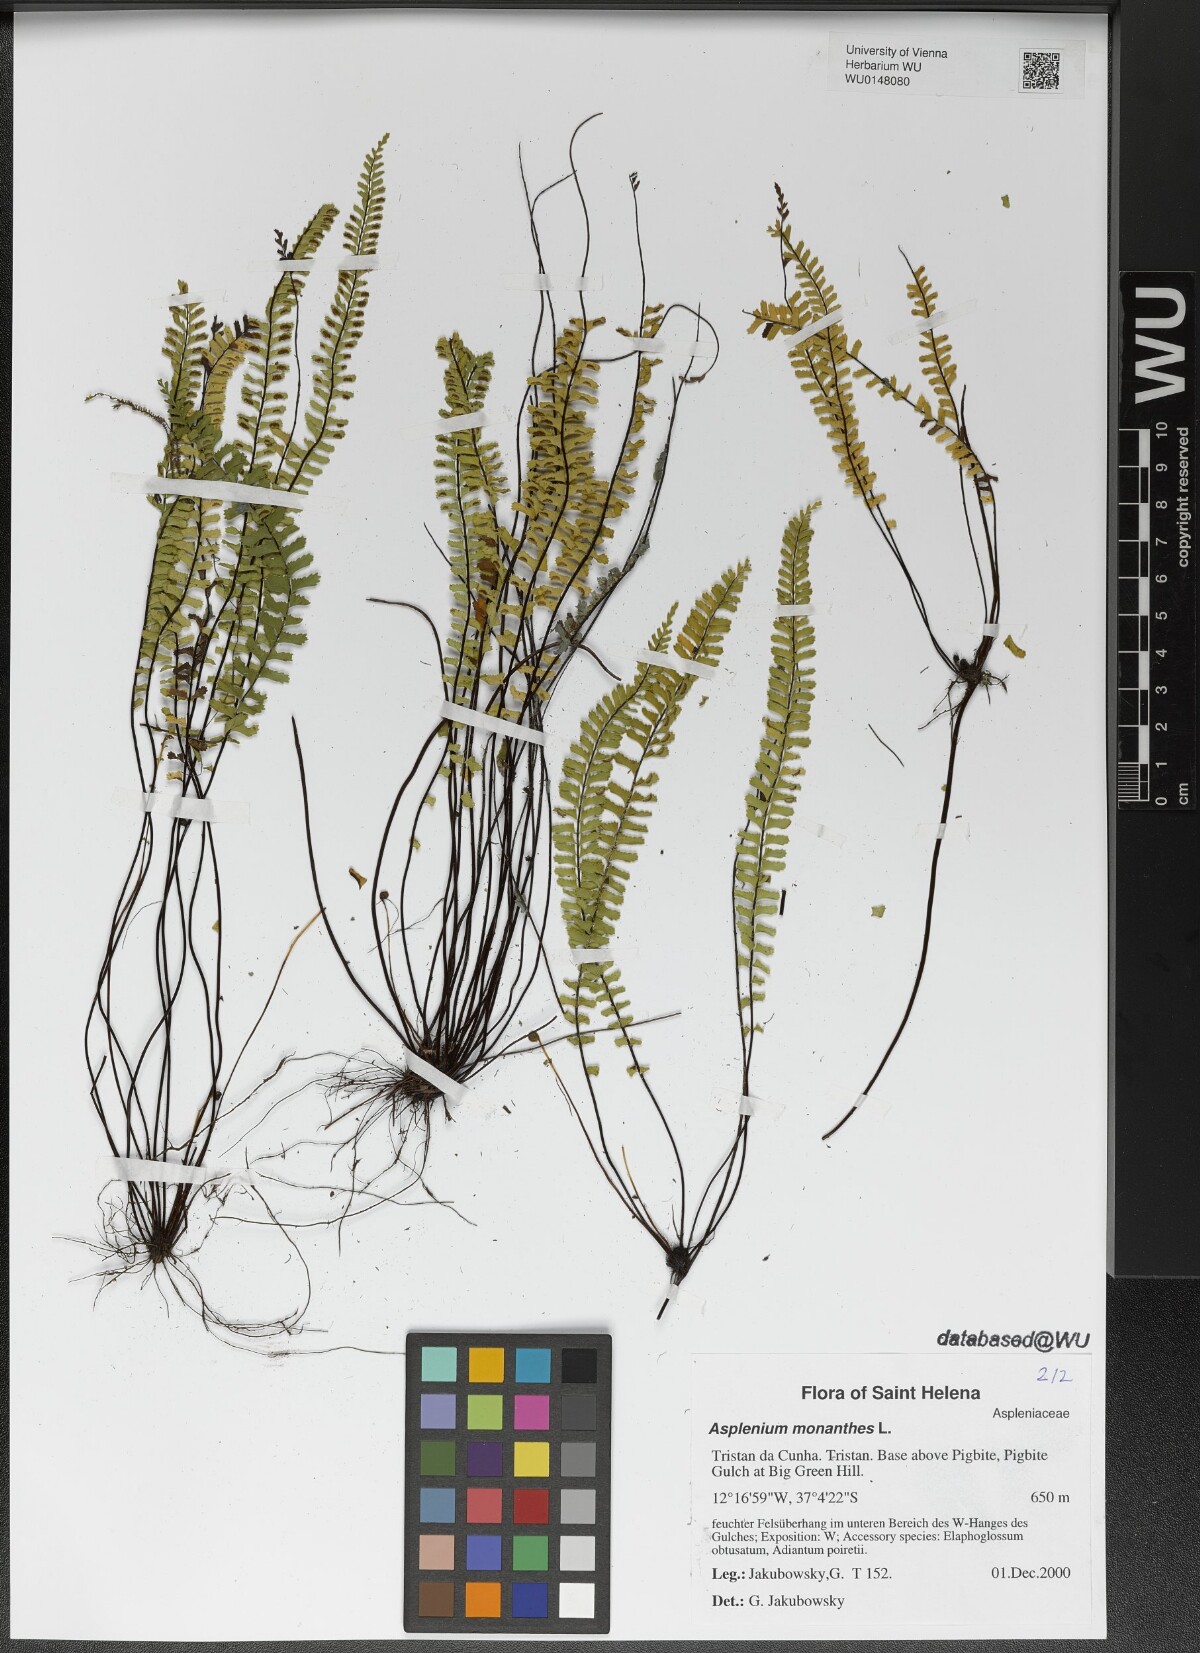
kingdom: Plantae
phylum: Tracheophyta
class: Polypodiopsida
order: Polypodiales
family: Aspleniaceae
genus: Asplenium
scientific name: Asplenium monanthes
